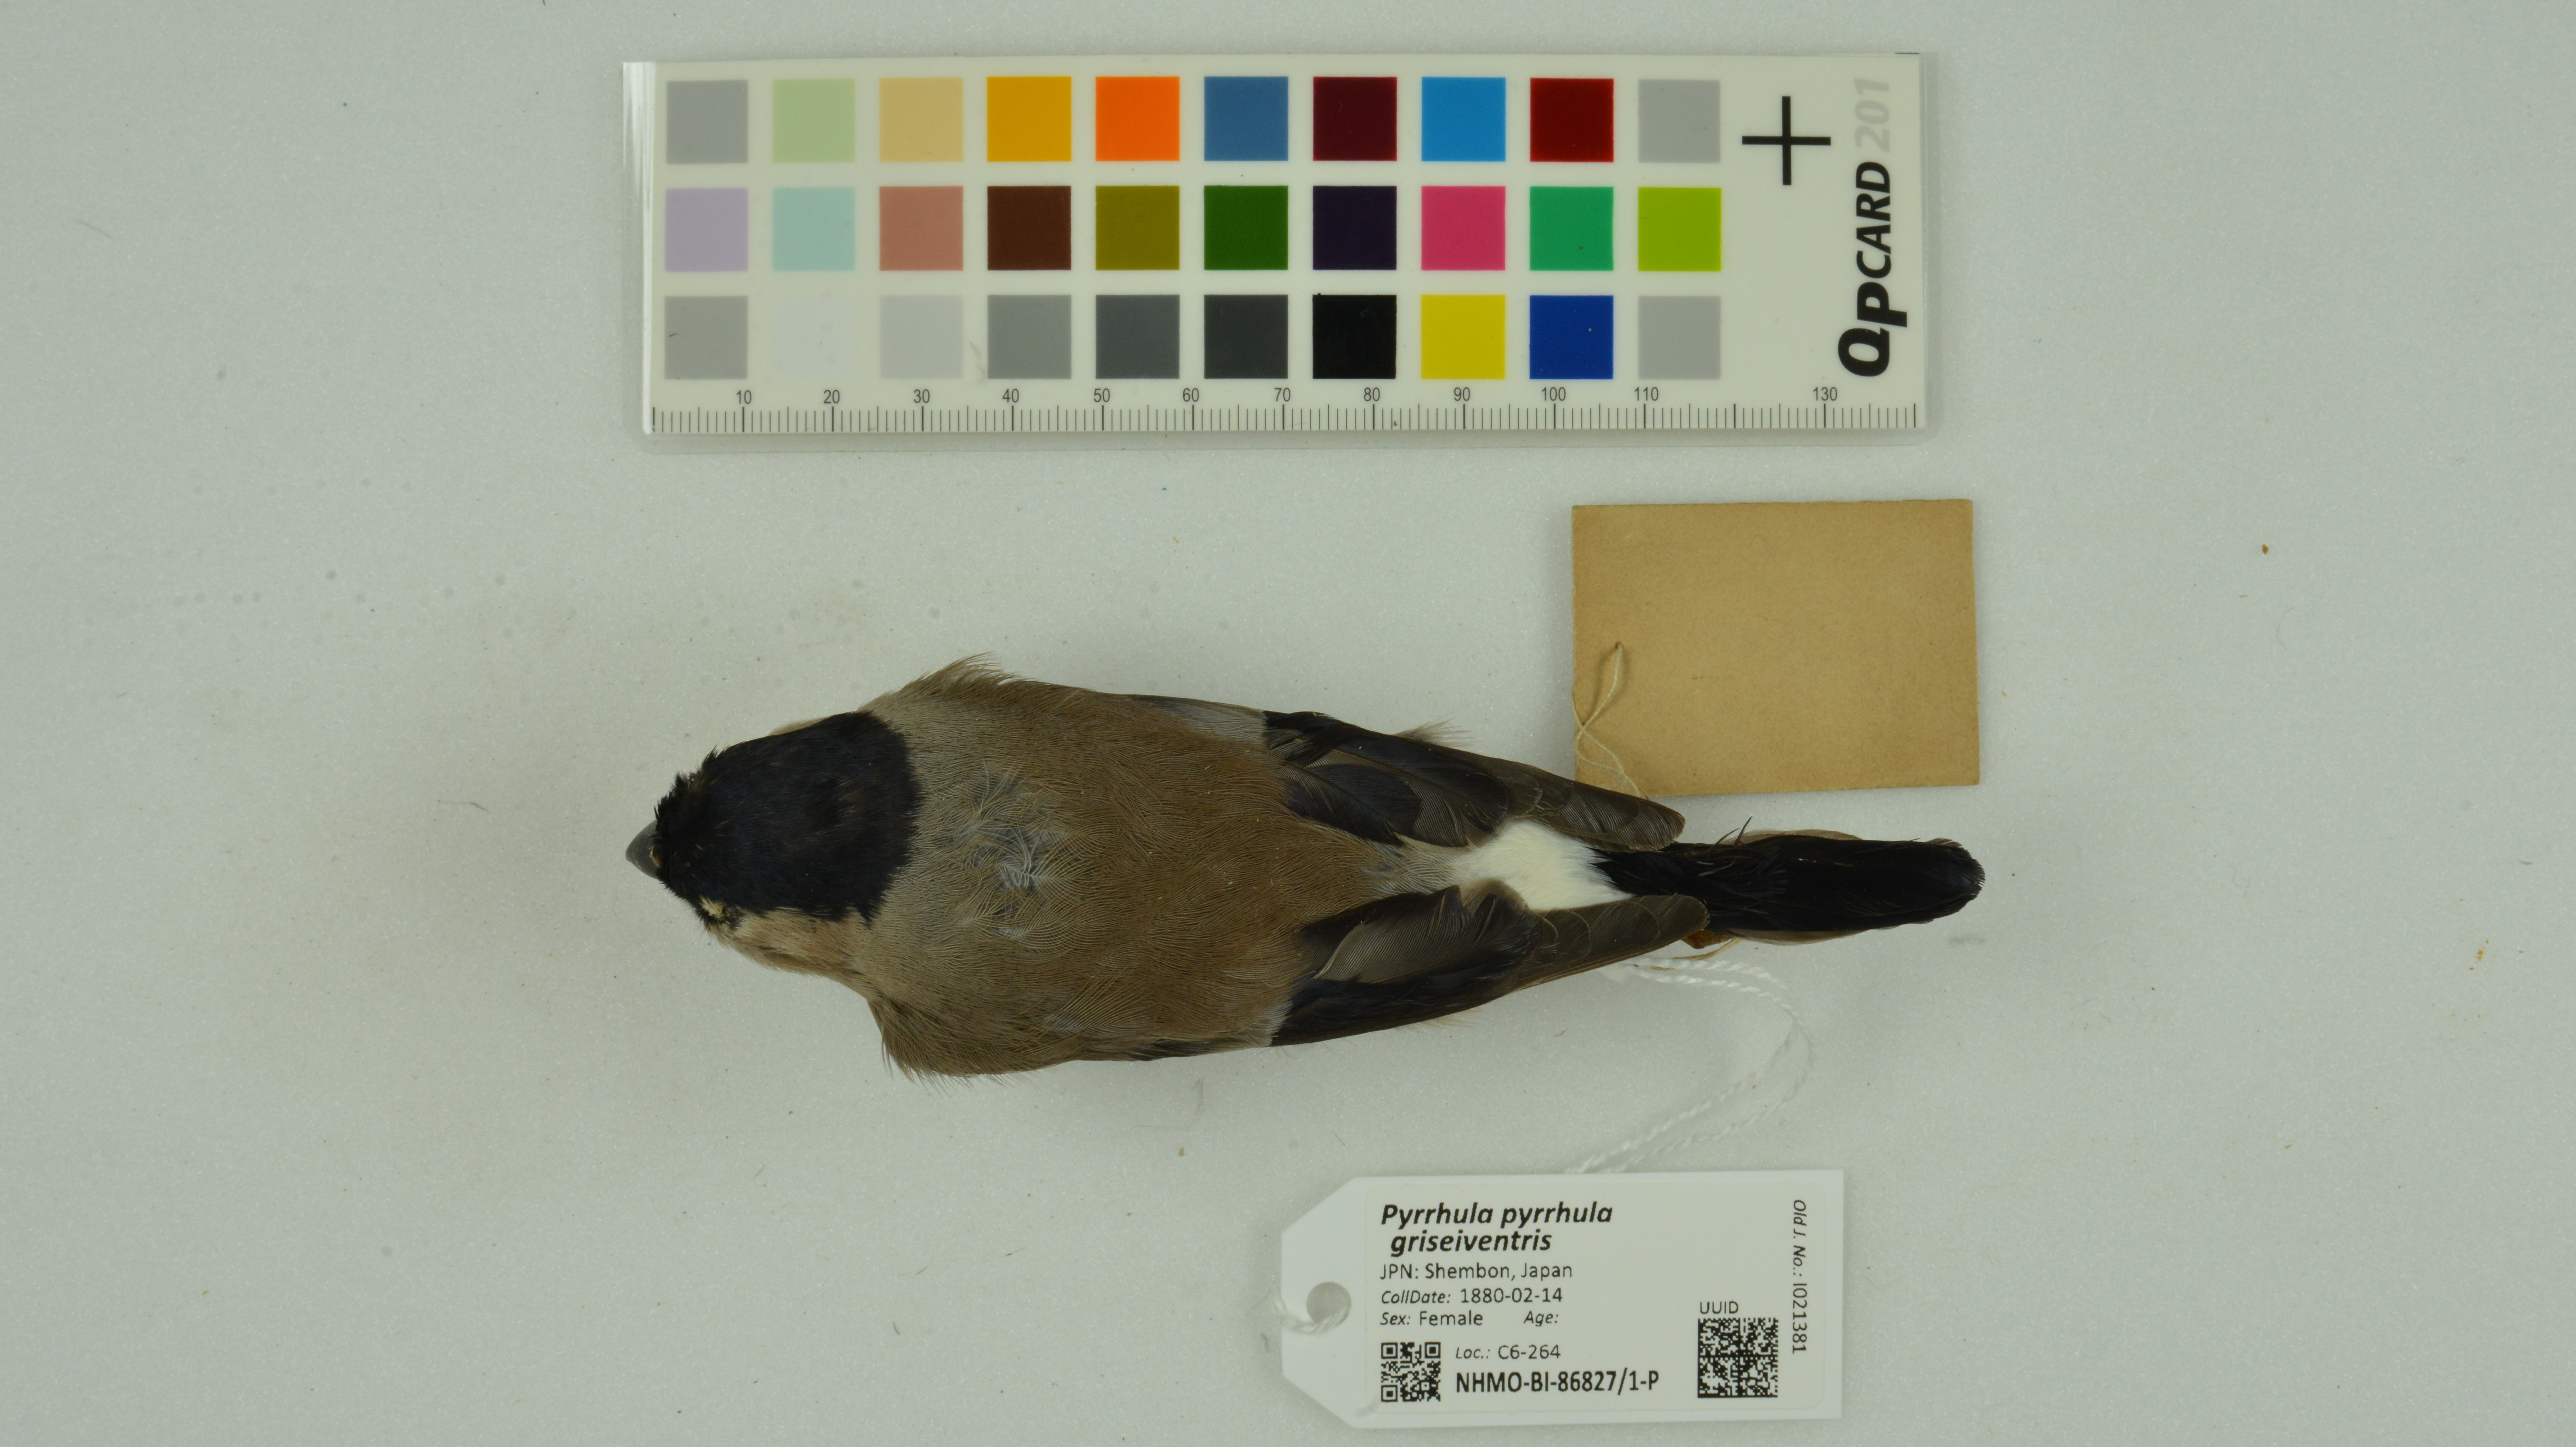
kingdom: Animalia
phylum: Chordata
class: Aves
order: Passeriformes
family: Fringillidae
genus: Pyrrhula
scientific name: Pyrrhula pyrrhula
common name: Eurasian bullfinch
